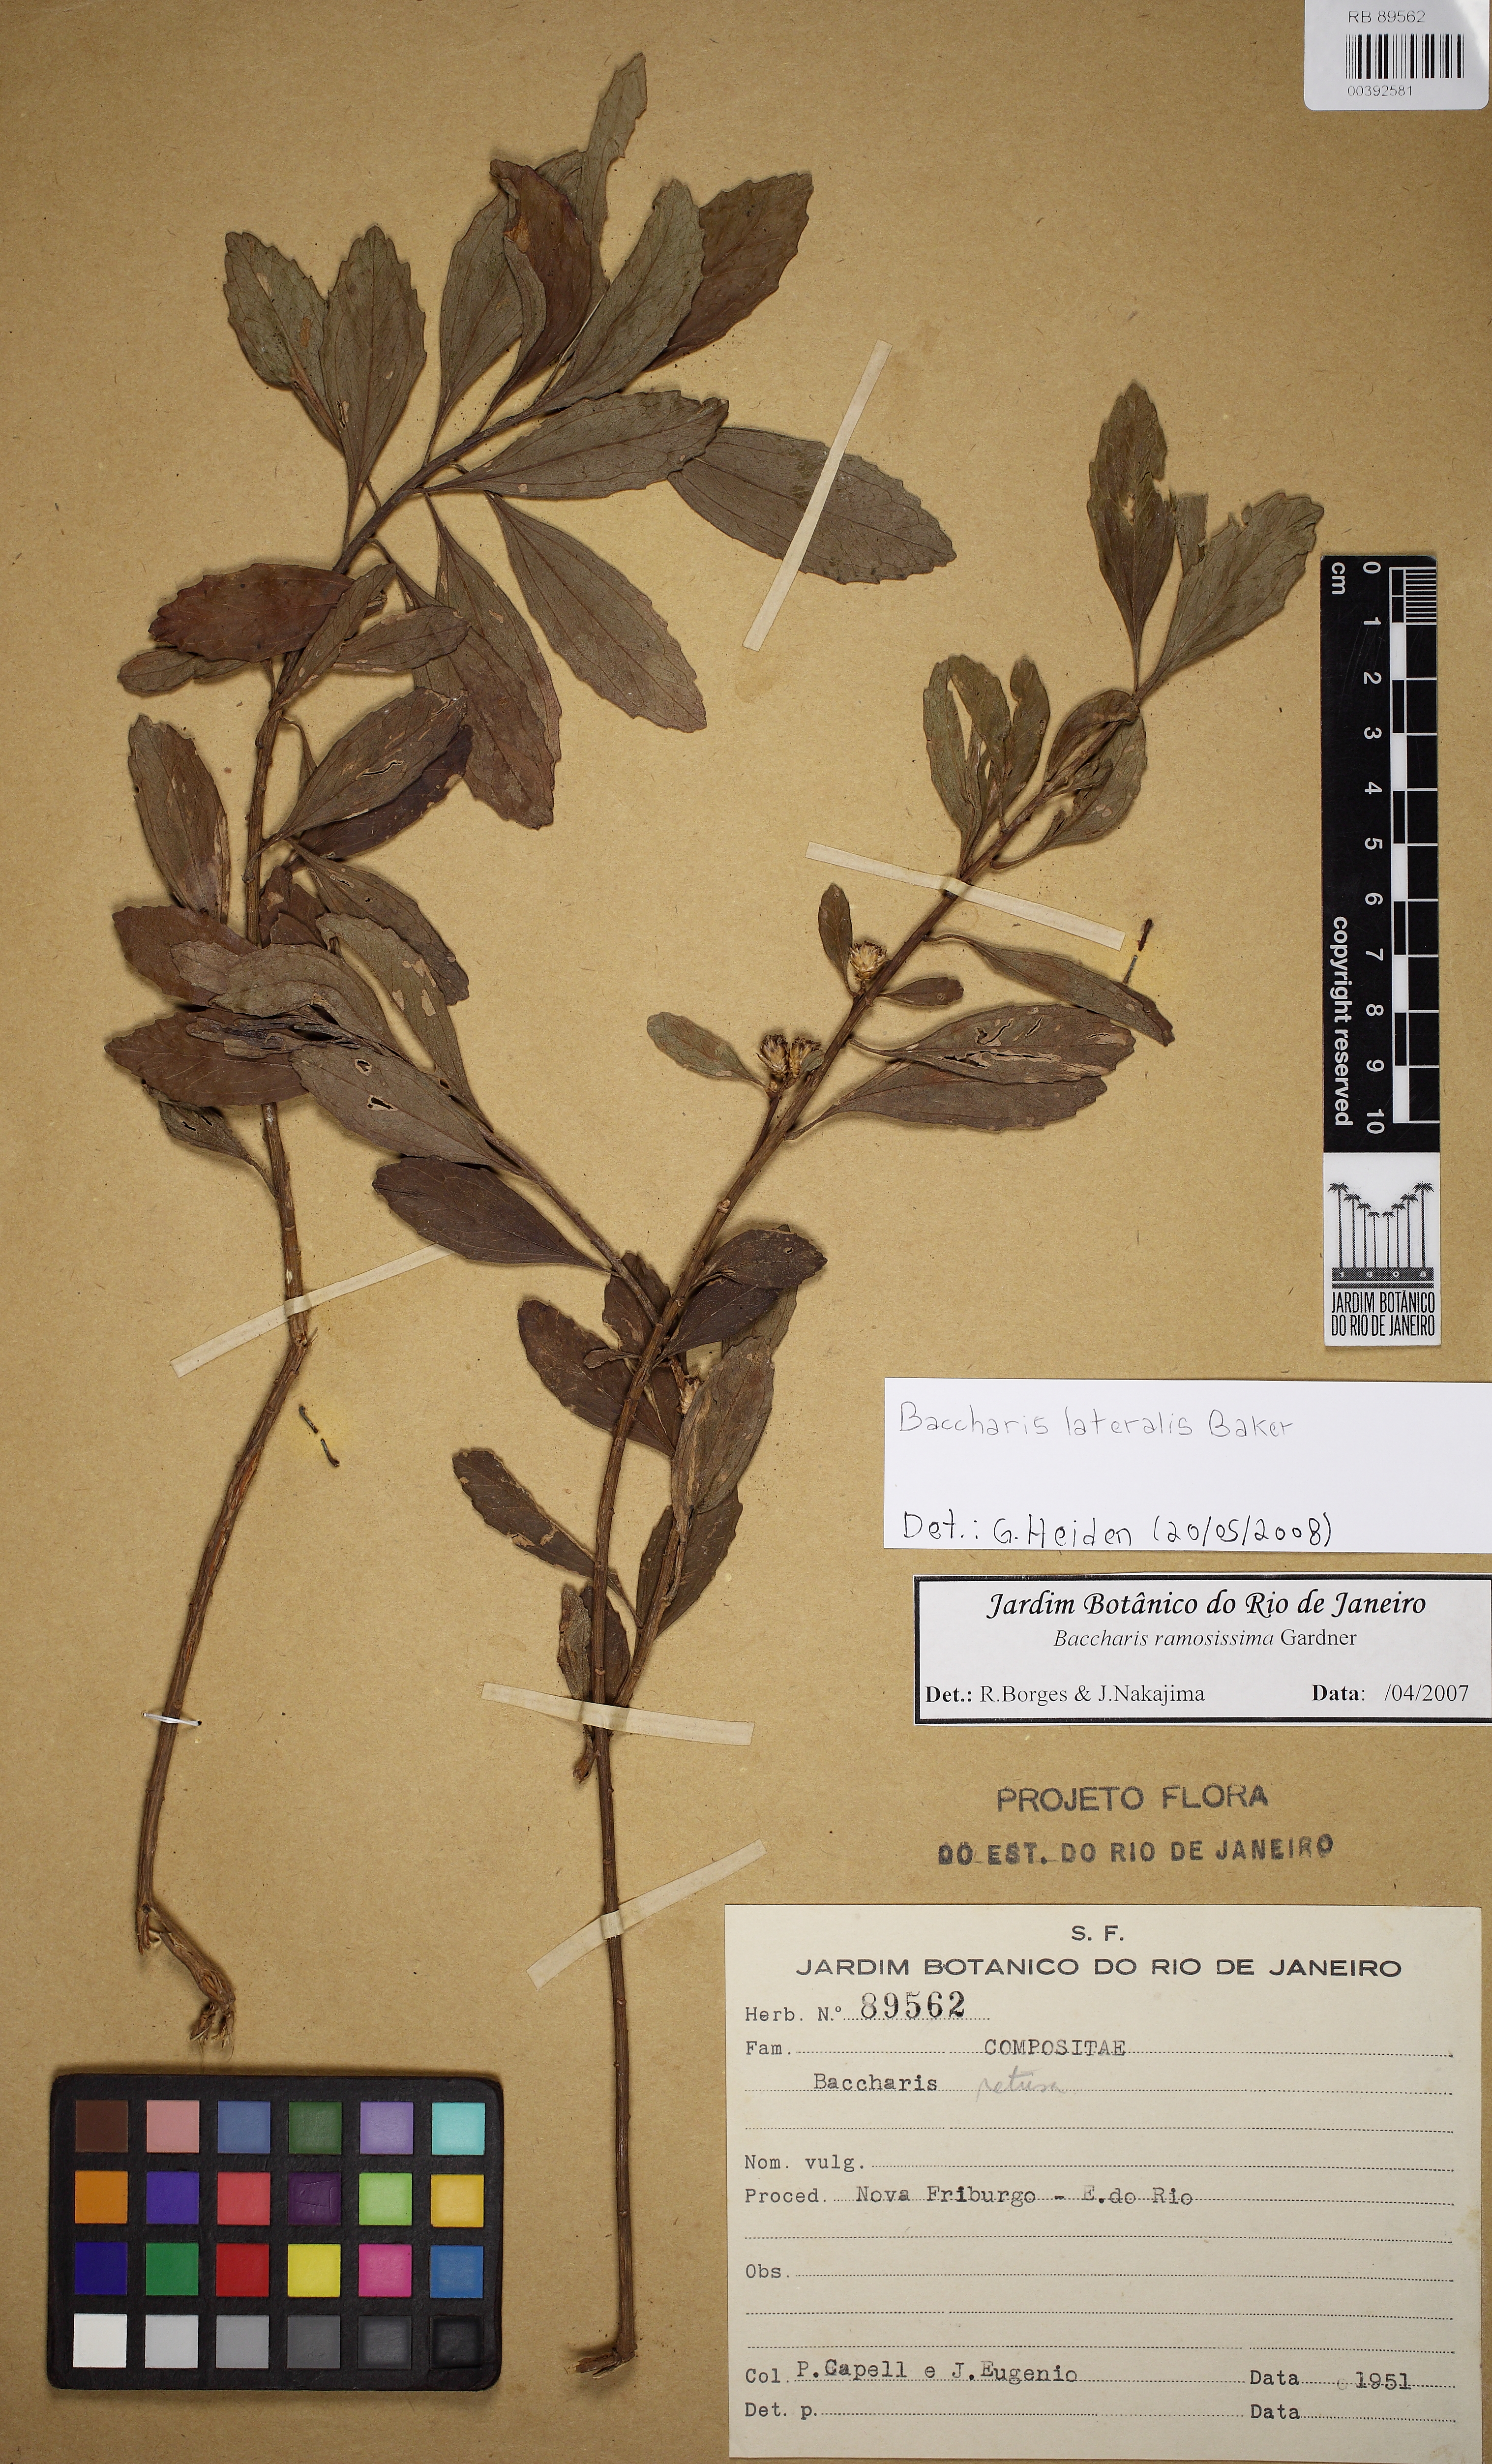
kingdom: Plantae
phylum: Tracheophyta
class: Magnoliopsida
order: Asterales
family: Asteraceae
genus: Baccharis
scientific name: Baccharis lateralis
